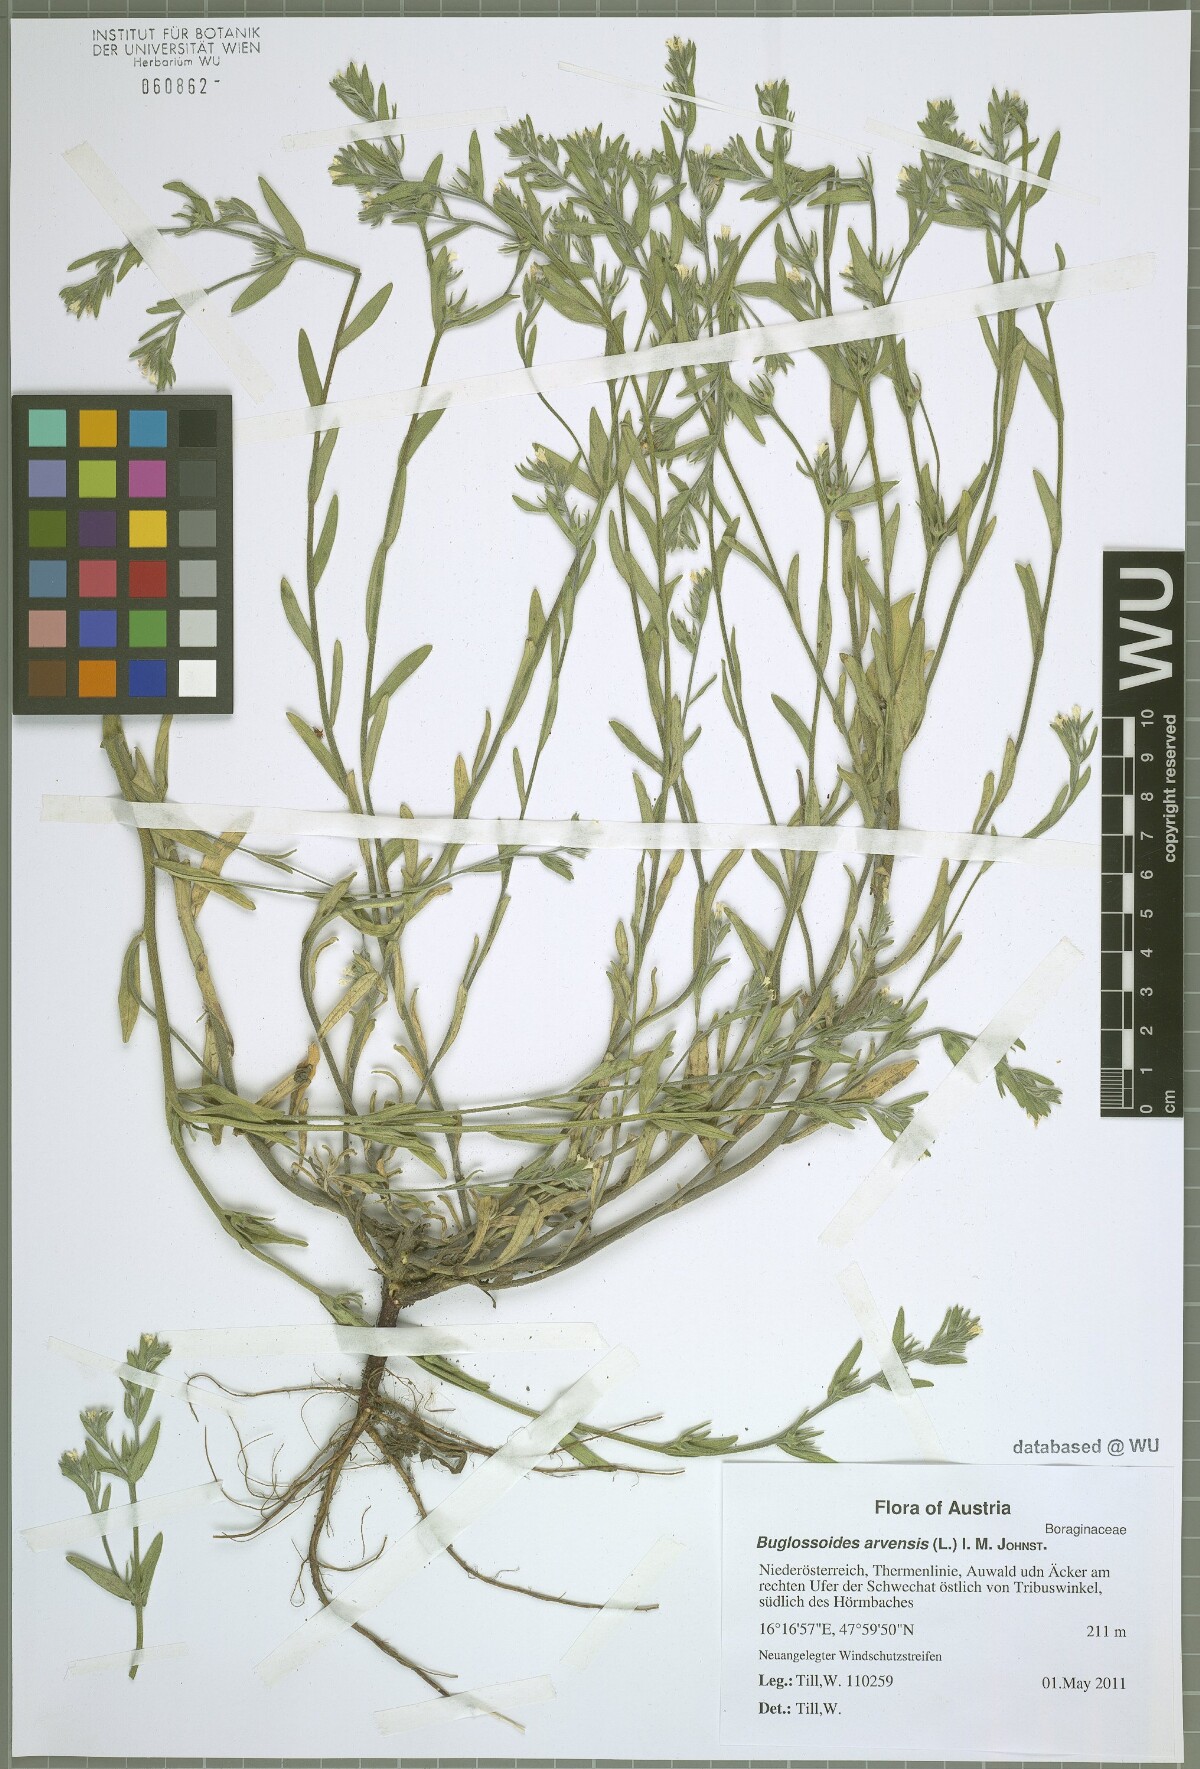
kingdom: Plantae
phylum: Tracheophyta
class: Magnoliopsida
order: Boraginales
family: Boraginaceae
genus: Buglossoides
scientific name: Buglossoides arvensis
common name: Corn gromwell
